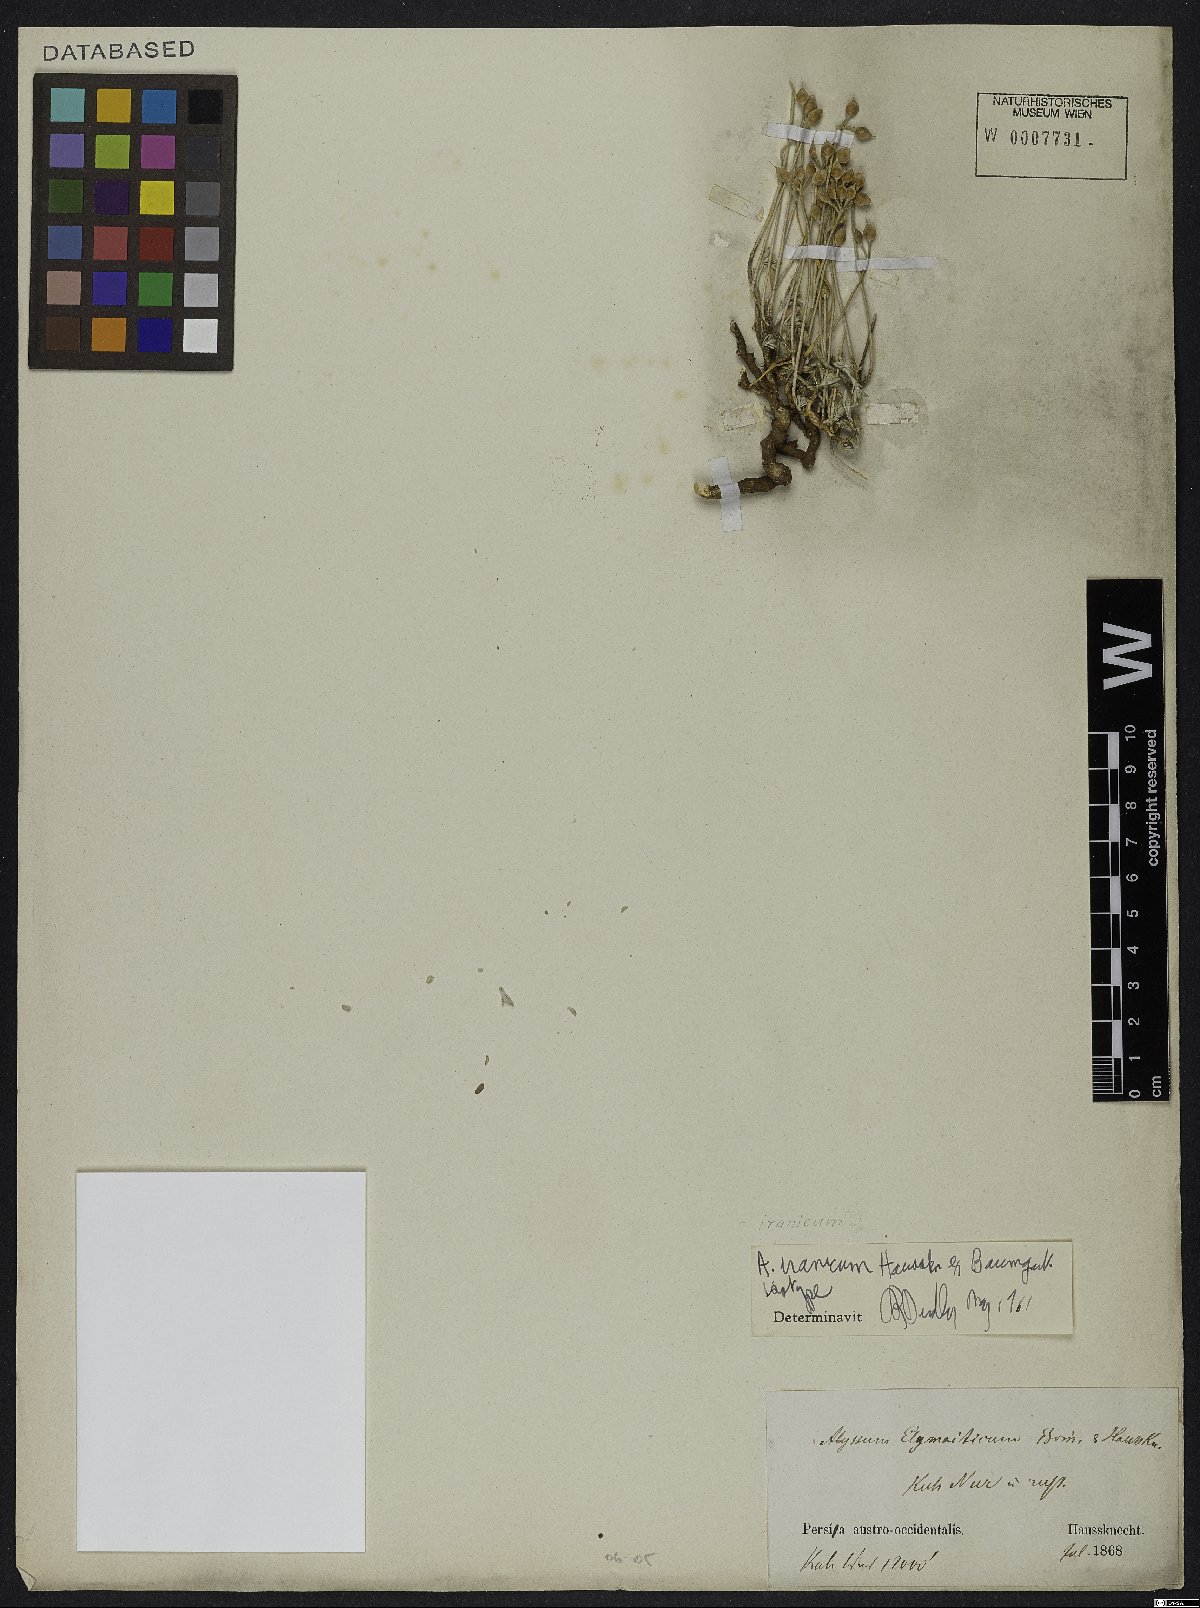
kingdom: Plantae
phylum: Tracheophyta
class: Magnoliopsida
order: Brassicales
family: Brassicaceae
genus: Alyssum
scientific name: Alyssum iranicum
